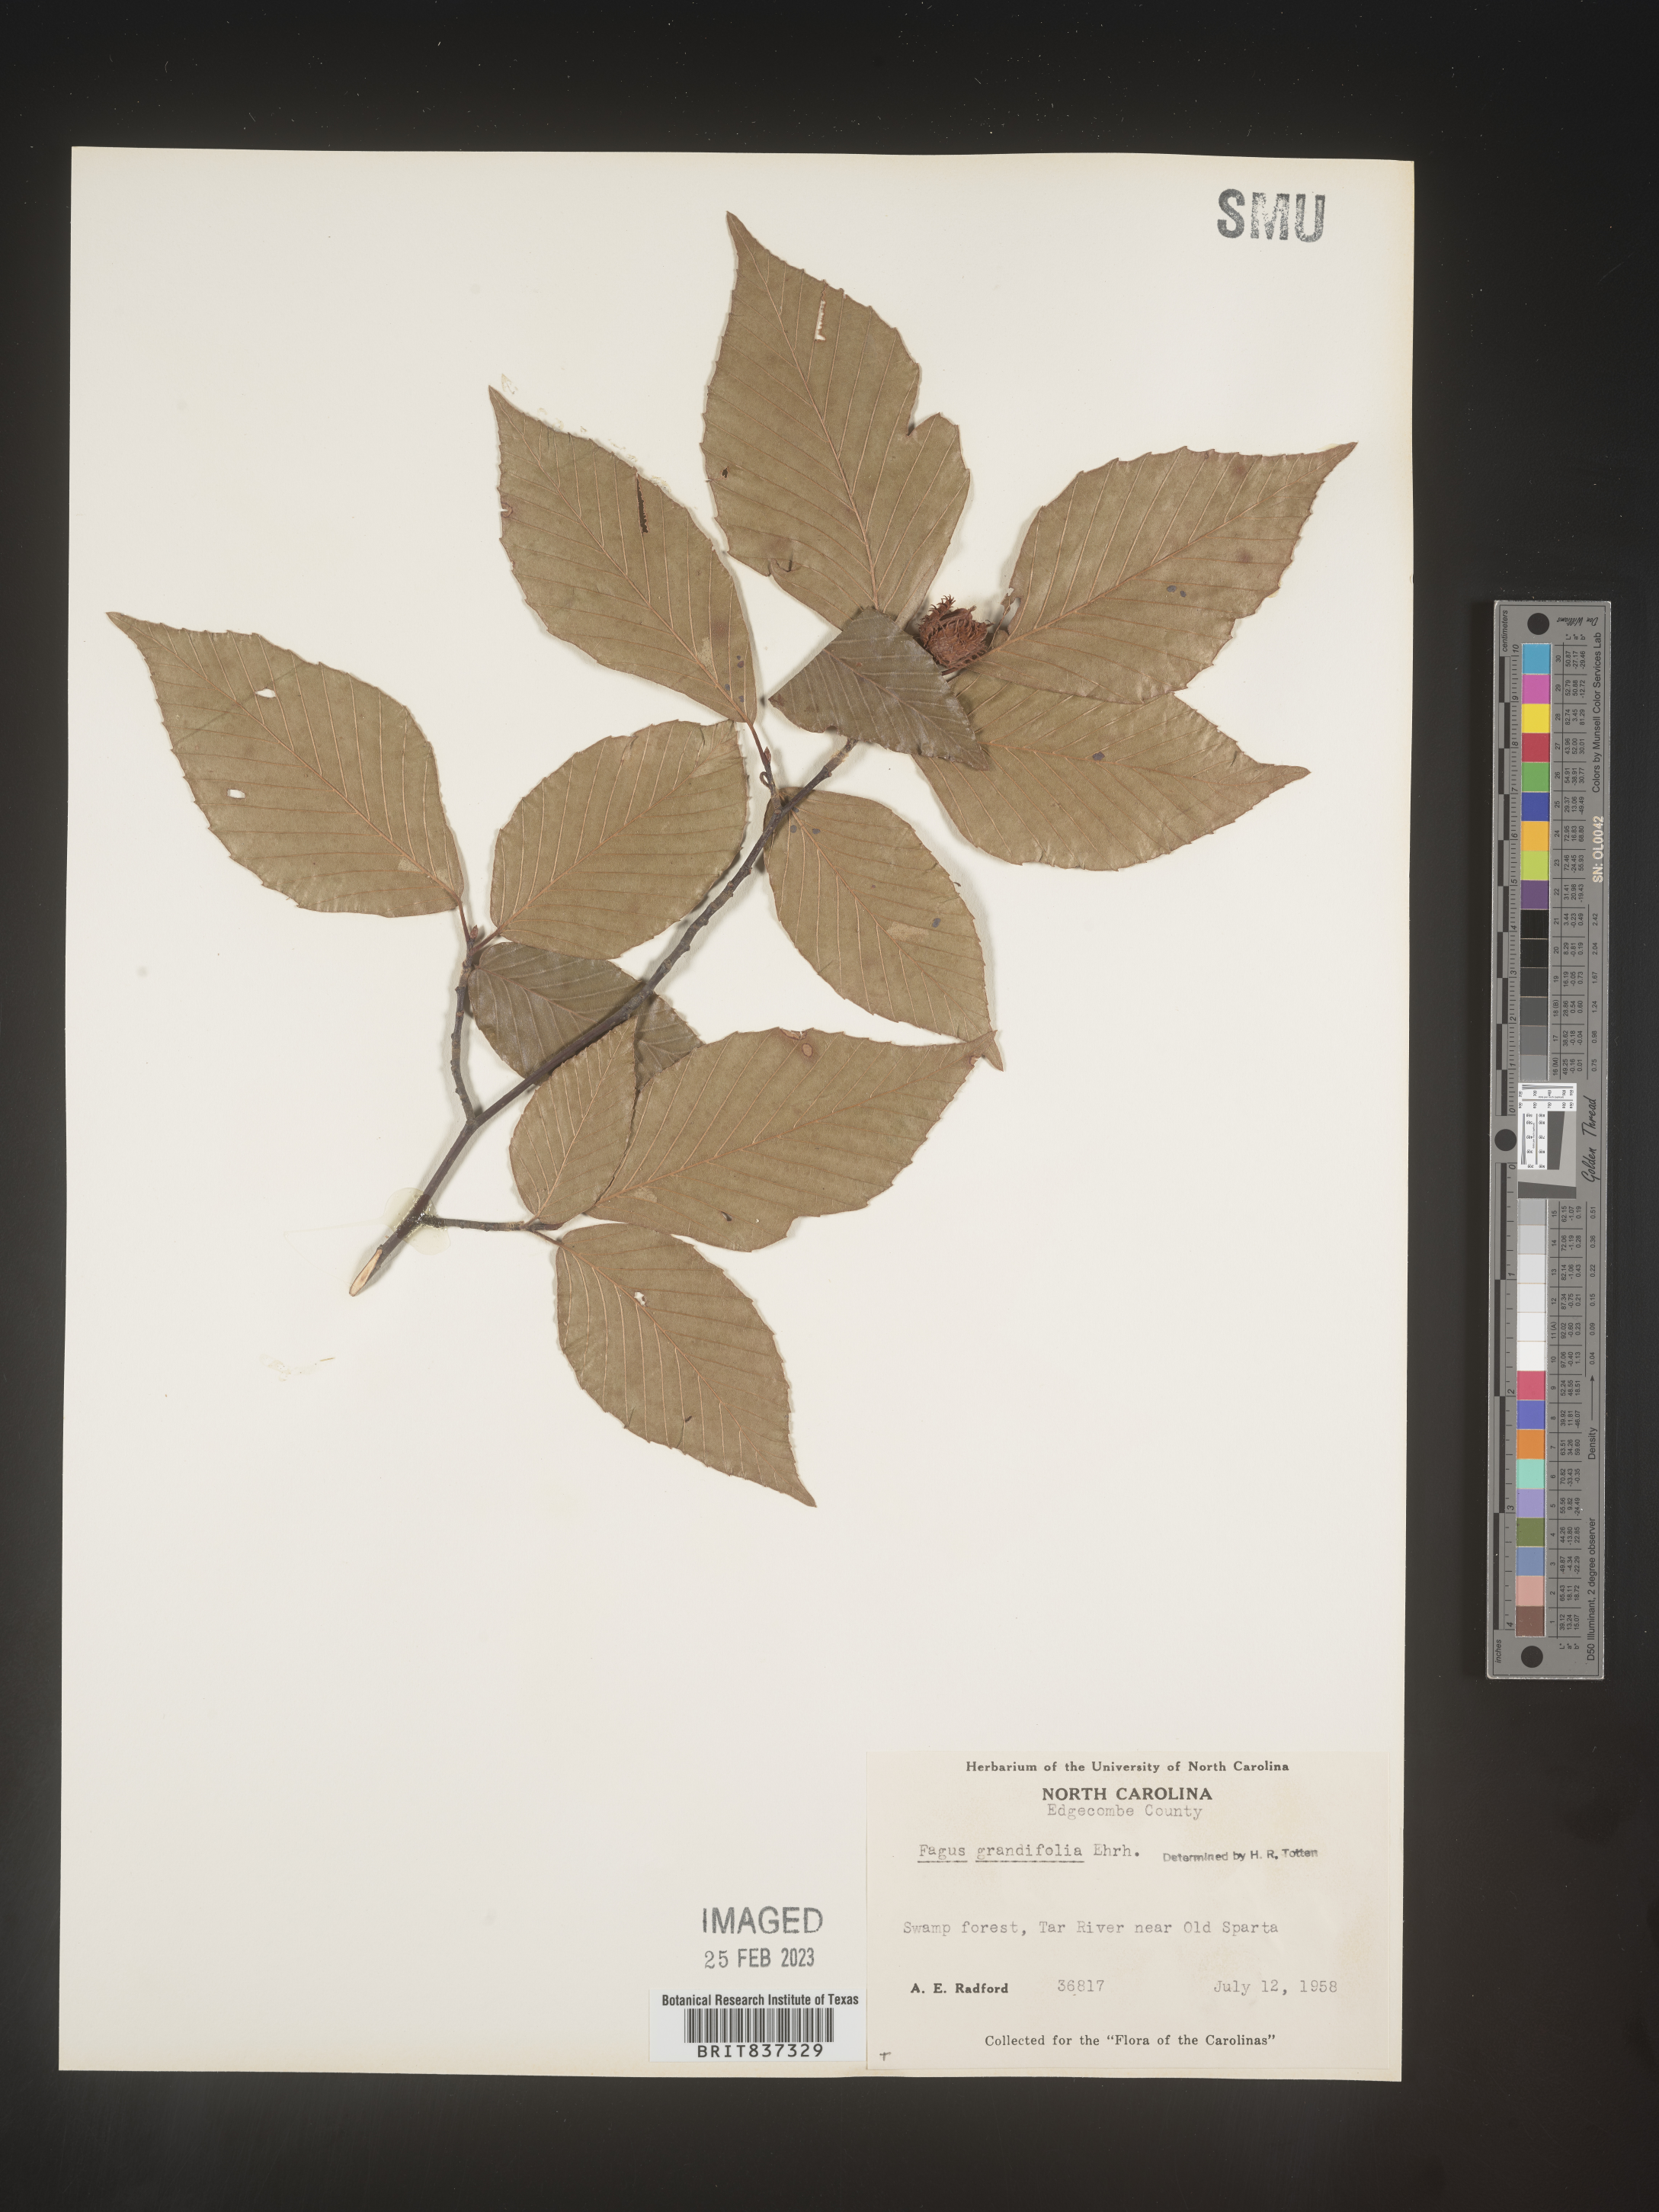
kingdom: Plantae
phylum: Tracheophyta
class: Magnoliopsida
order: Fagales
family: Fagaceae
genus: Fagus
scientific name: Fagus grandifolia
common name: American beech
